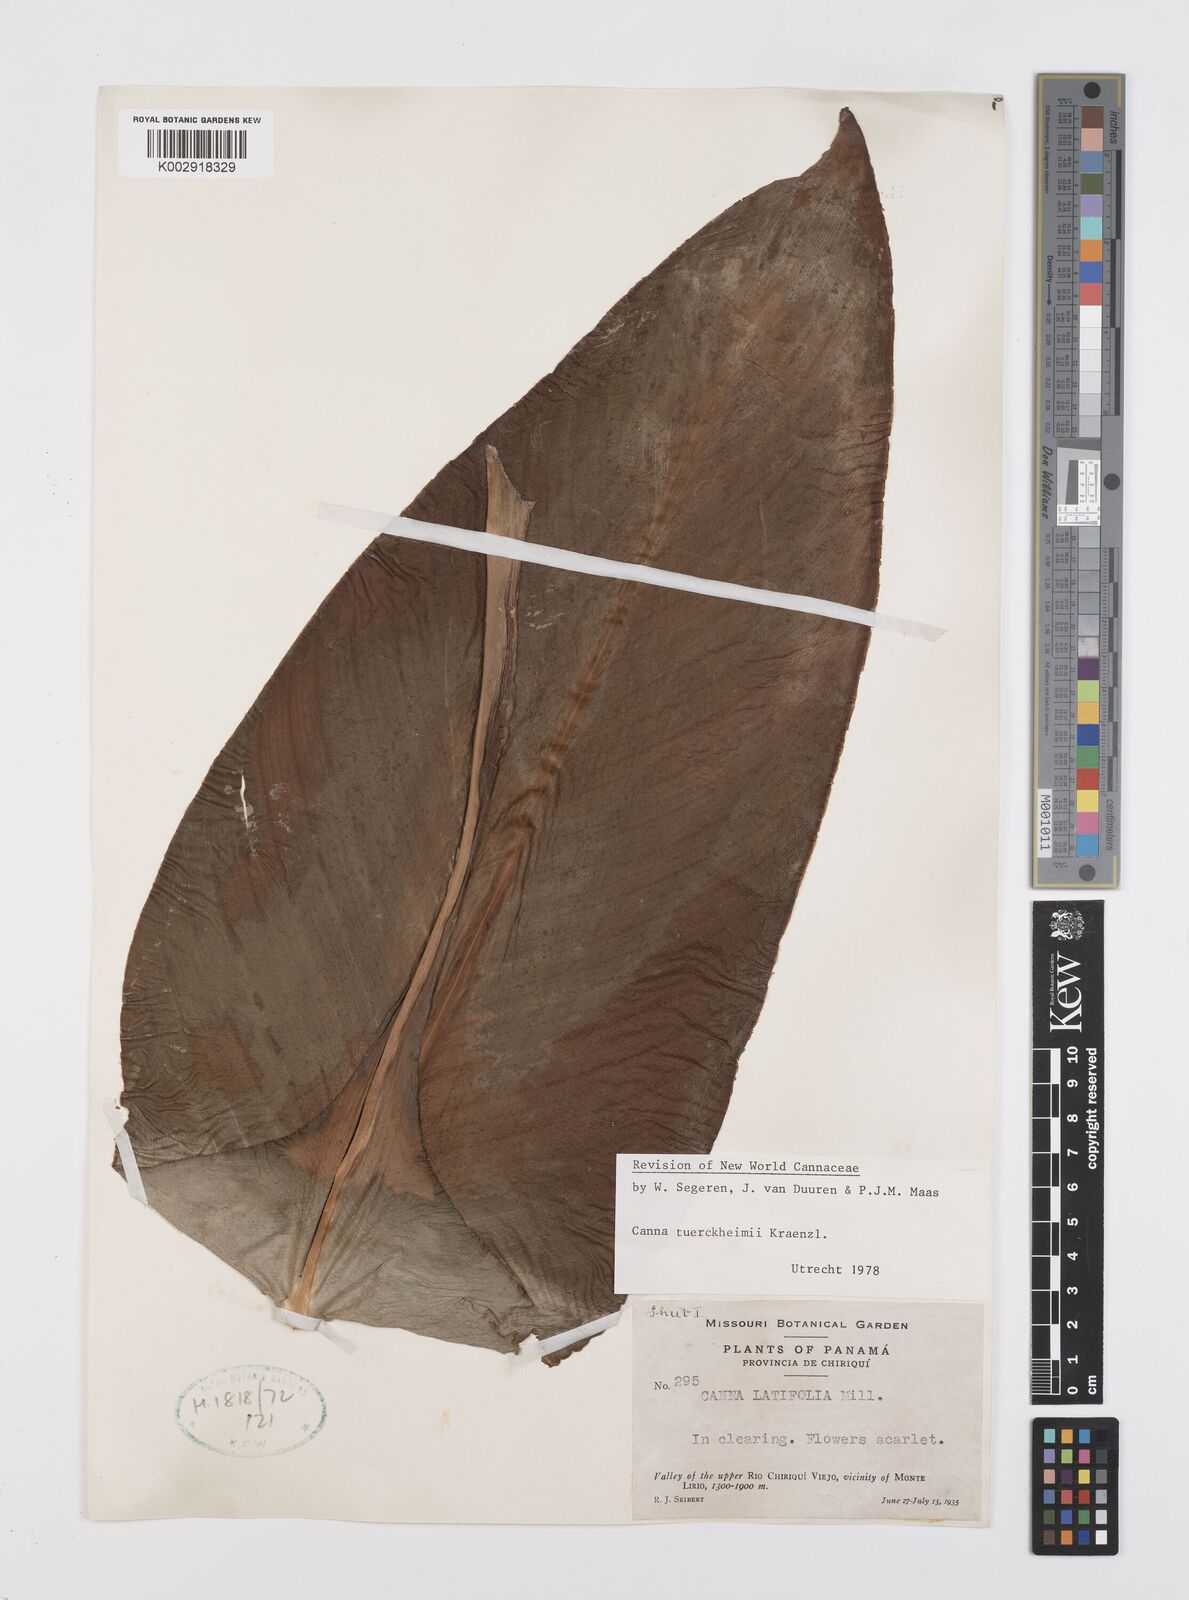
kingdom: Plantae
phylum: Tracheophyta
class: Liliopsida
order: Zingiberales
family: Cannaceae
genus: Canna
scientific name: Canna tuerckheimii
